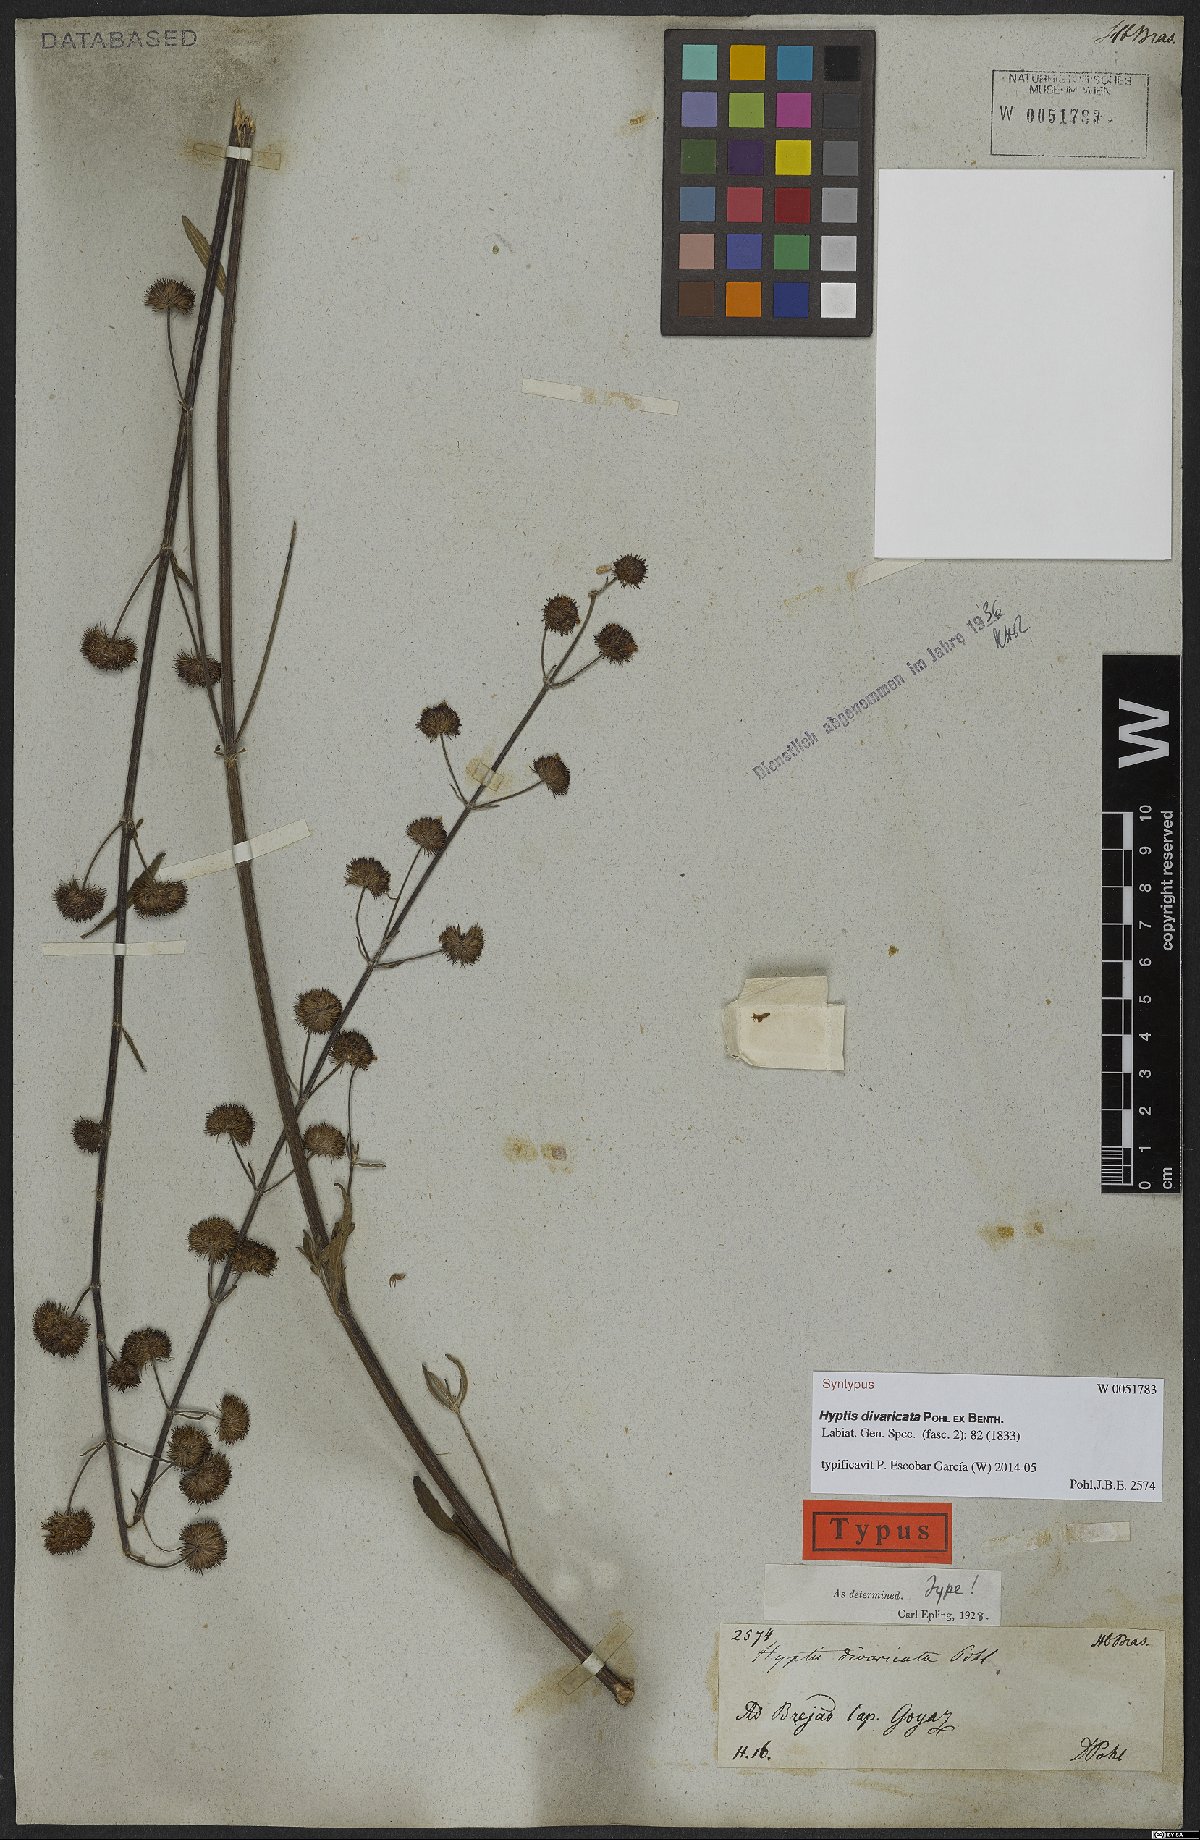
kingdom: Plantae
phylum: Tracheophyta
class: Magnoliopsida
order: Lamiales
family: Lamiaceae
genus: Hyptis
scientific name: Hyptis divaricata
